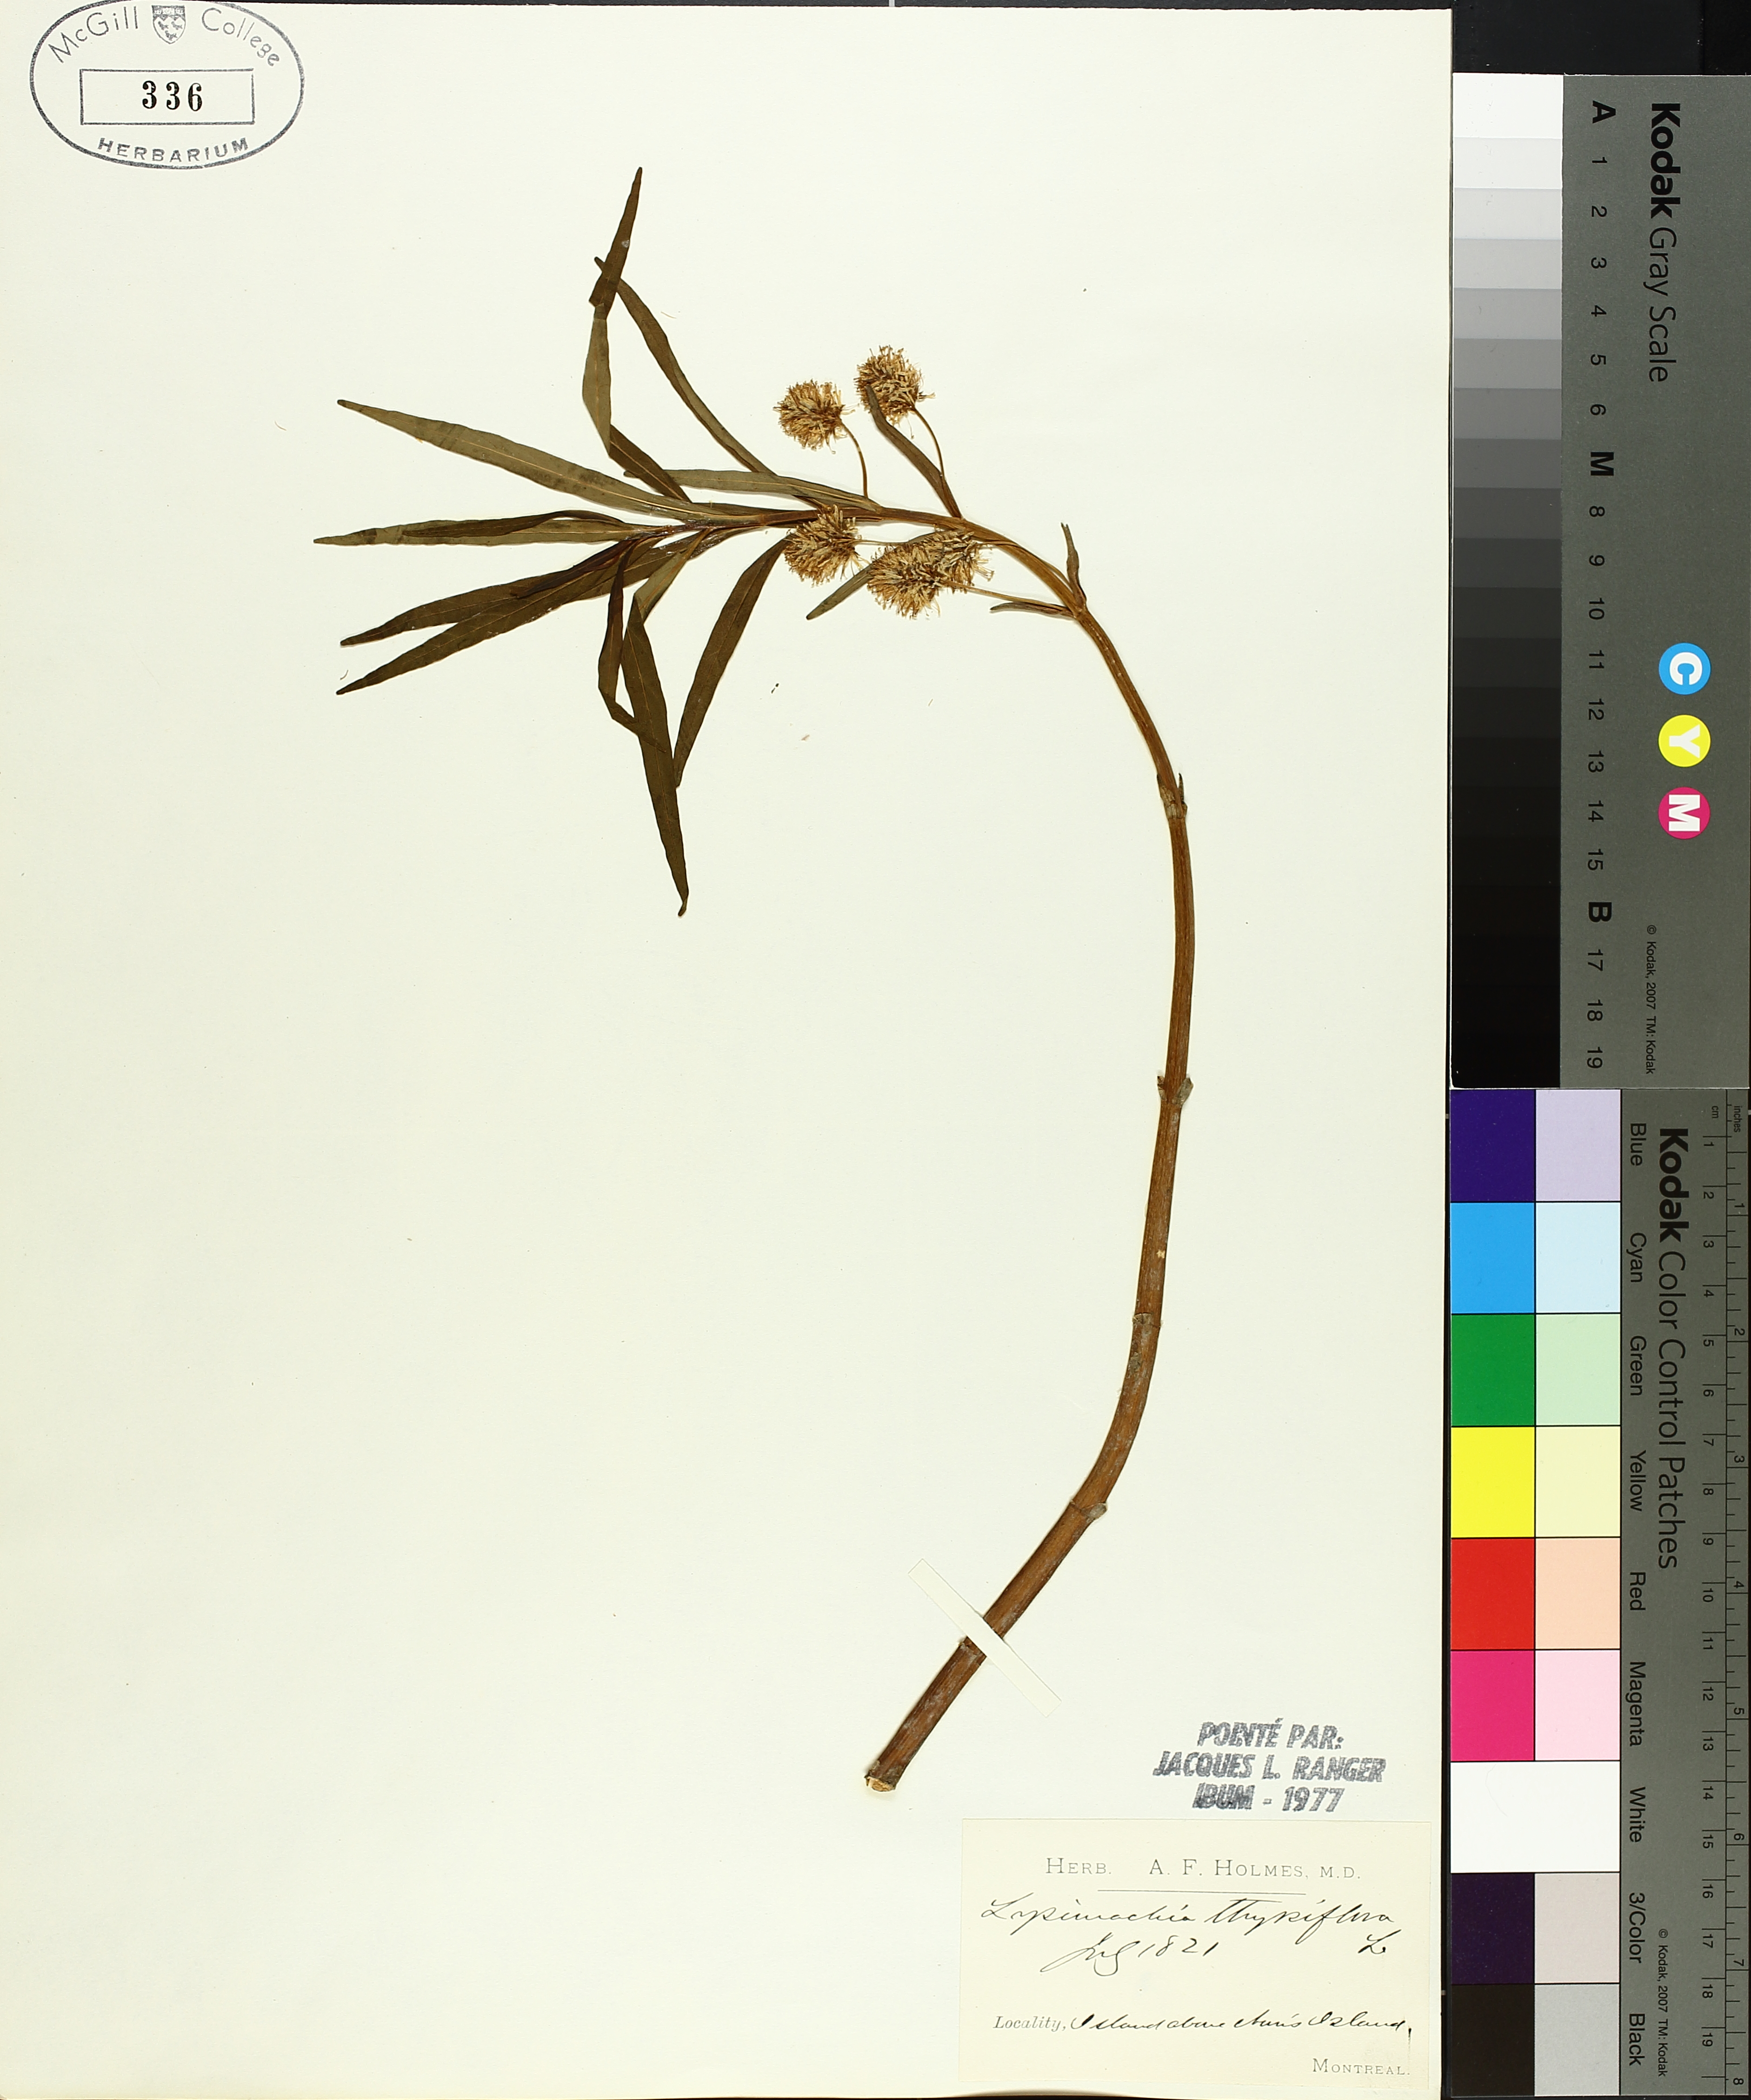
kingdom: Plantae
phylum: Tracheophyta
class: Magnoliopsida
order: Ericales
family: Primulaceae
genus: Lysimachia
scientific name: Lysimachia thyrsiflora
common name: Tufted loosestrife
